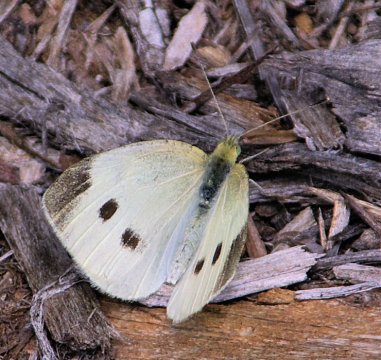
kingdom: Animalia
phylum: Arthropoda
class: Insecta
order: Lepidoptera
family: Pieridae
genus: Pieris
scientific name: Pieris rapae
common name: Cabbage White
